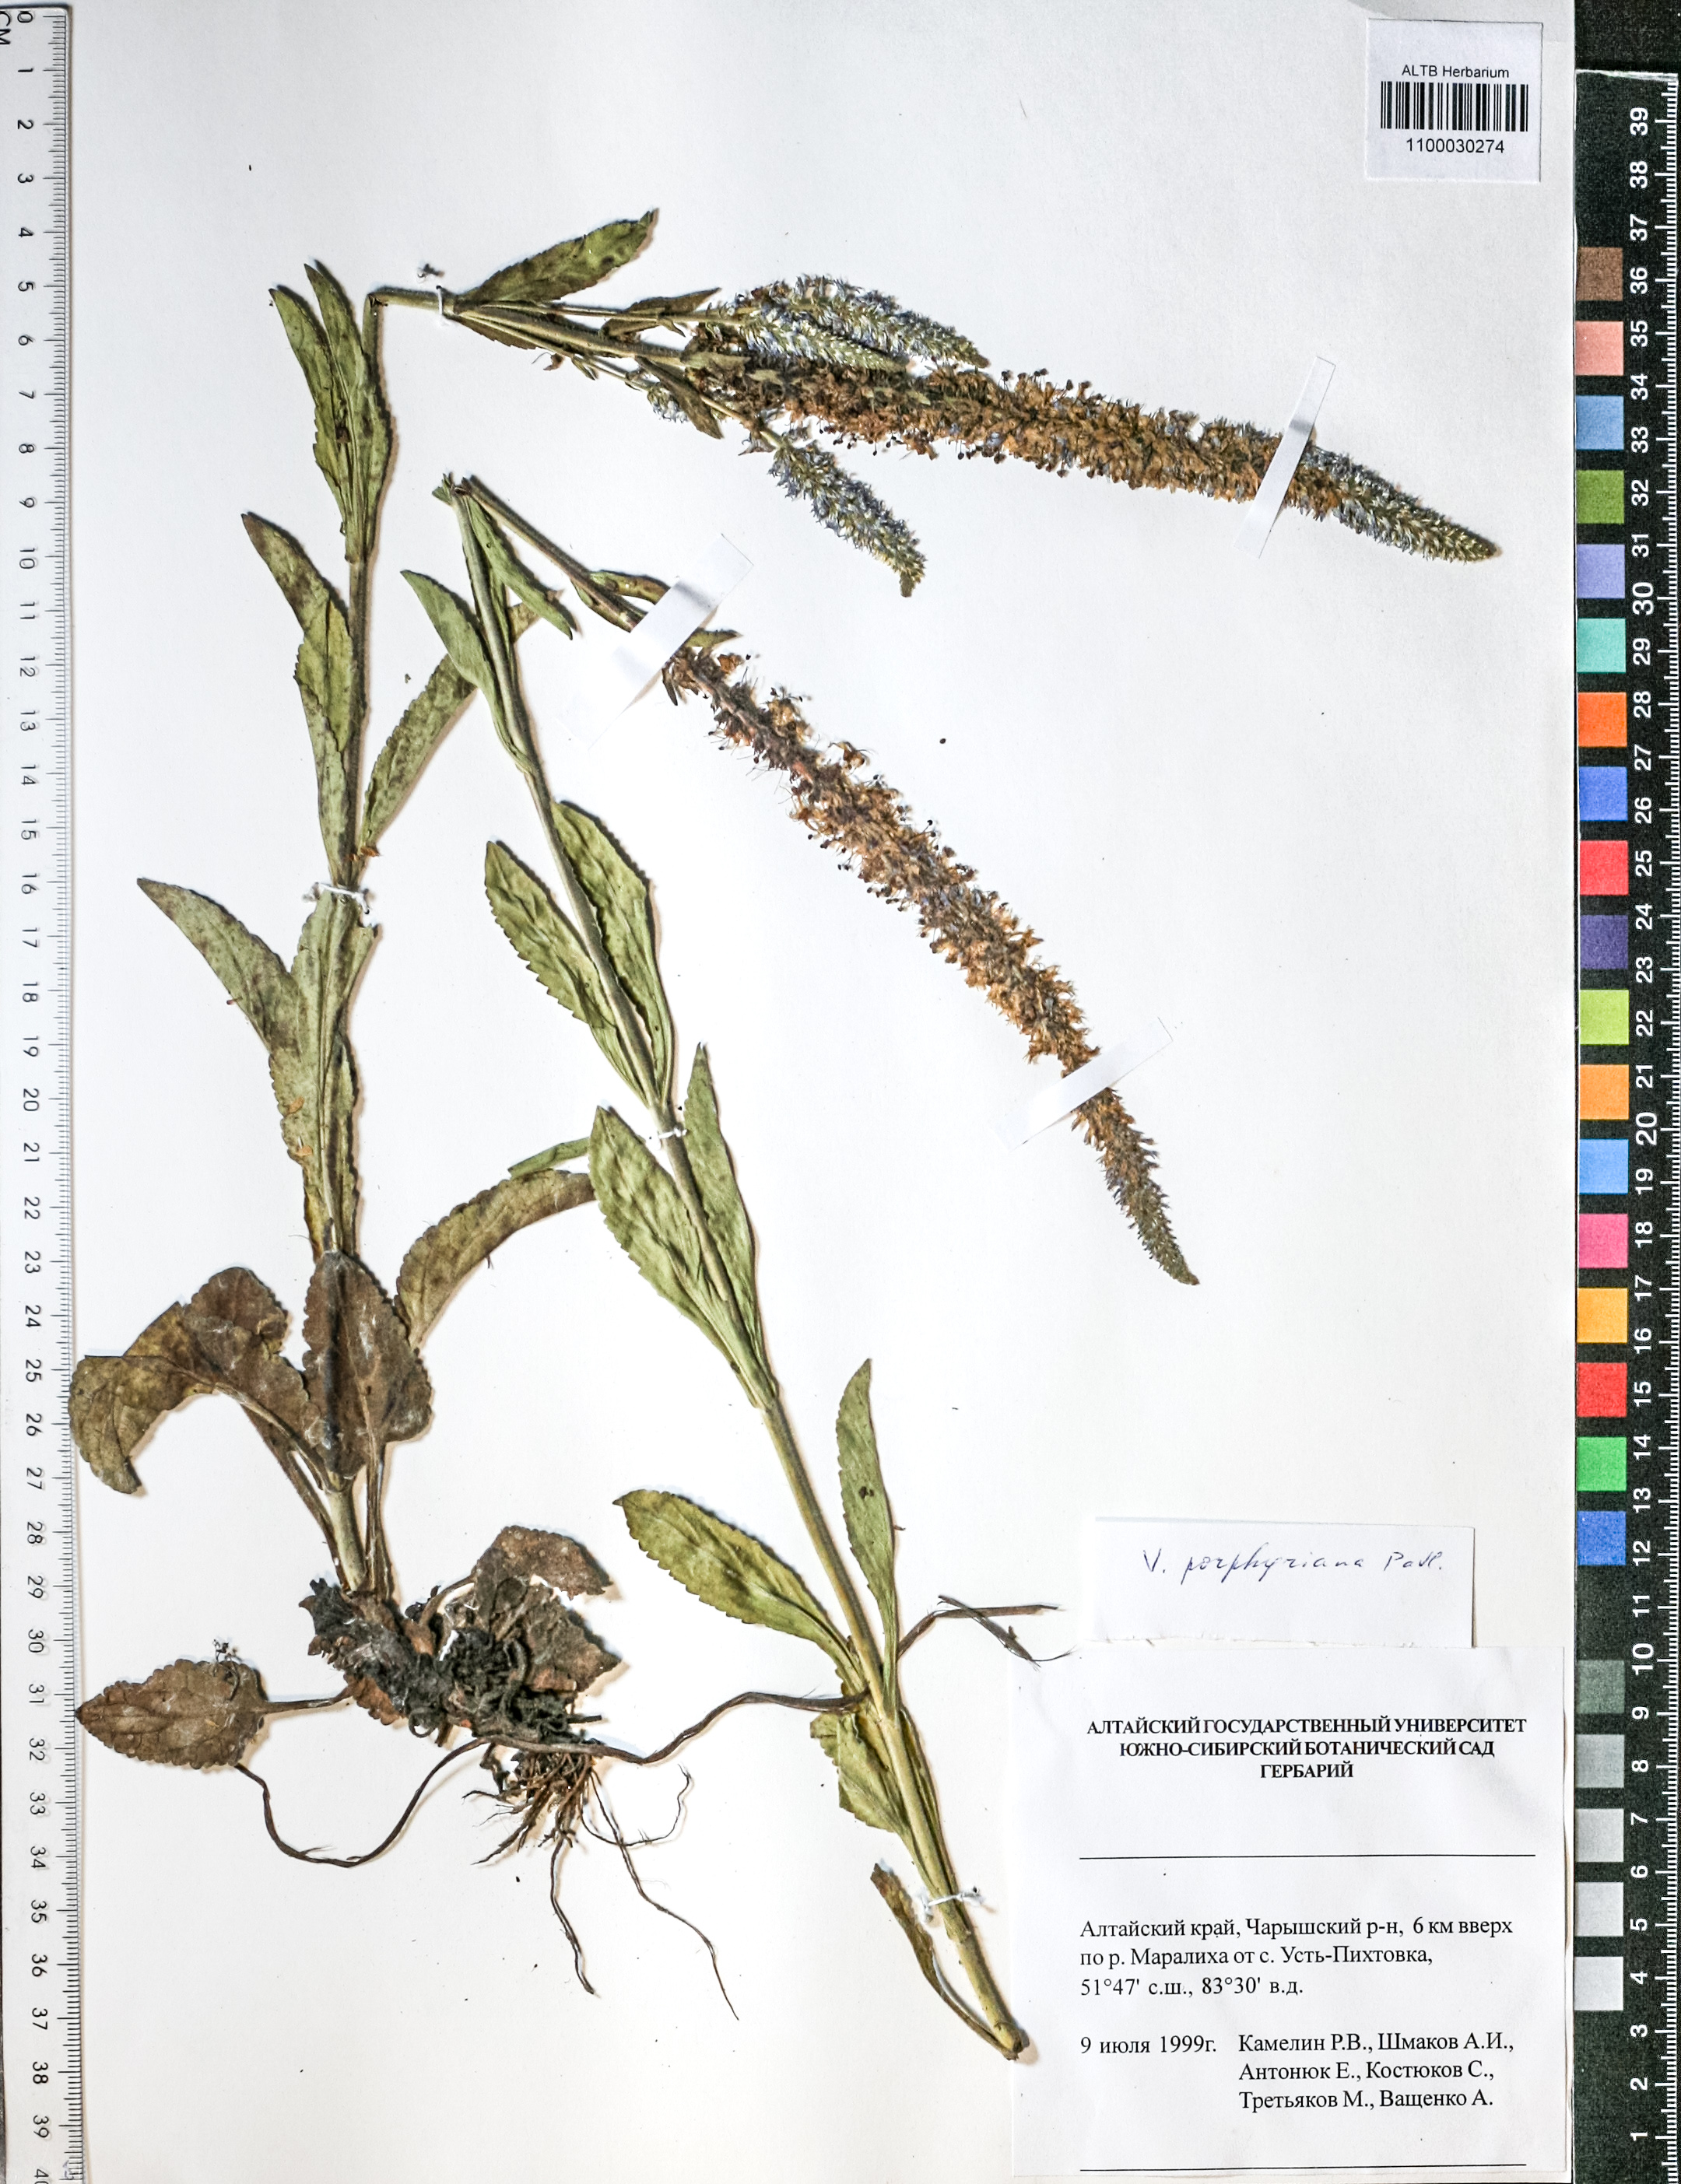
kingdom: Plantae
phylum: Tracheophyta
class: Magnoliopsida
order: Lamiales
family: Plantaginaceae
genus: Veronica
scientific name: Veronica porphyriana
